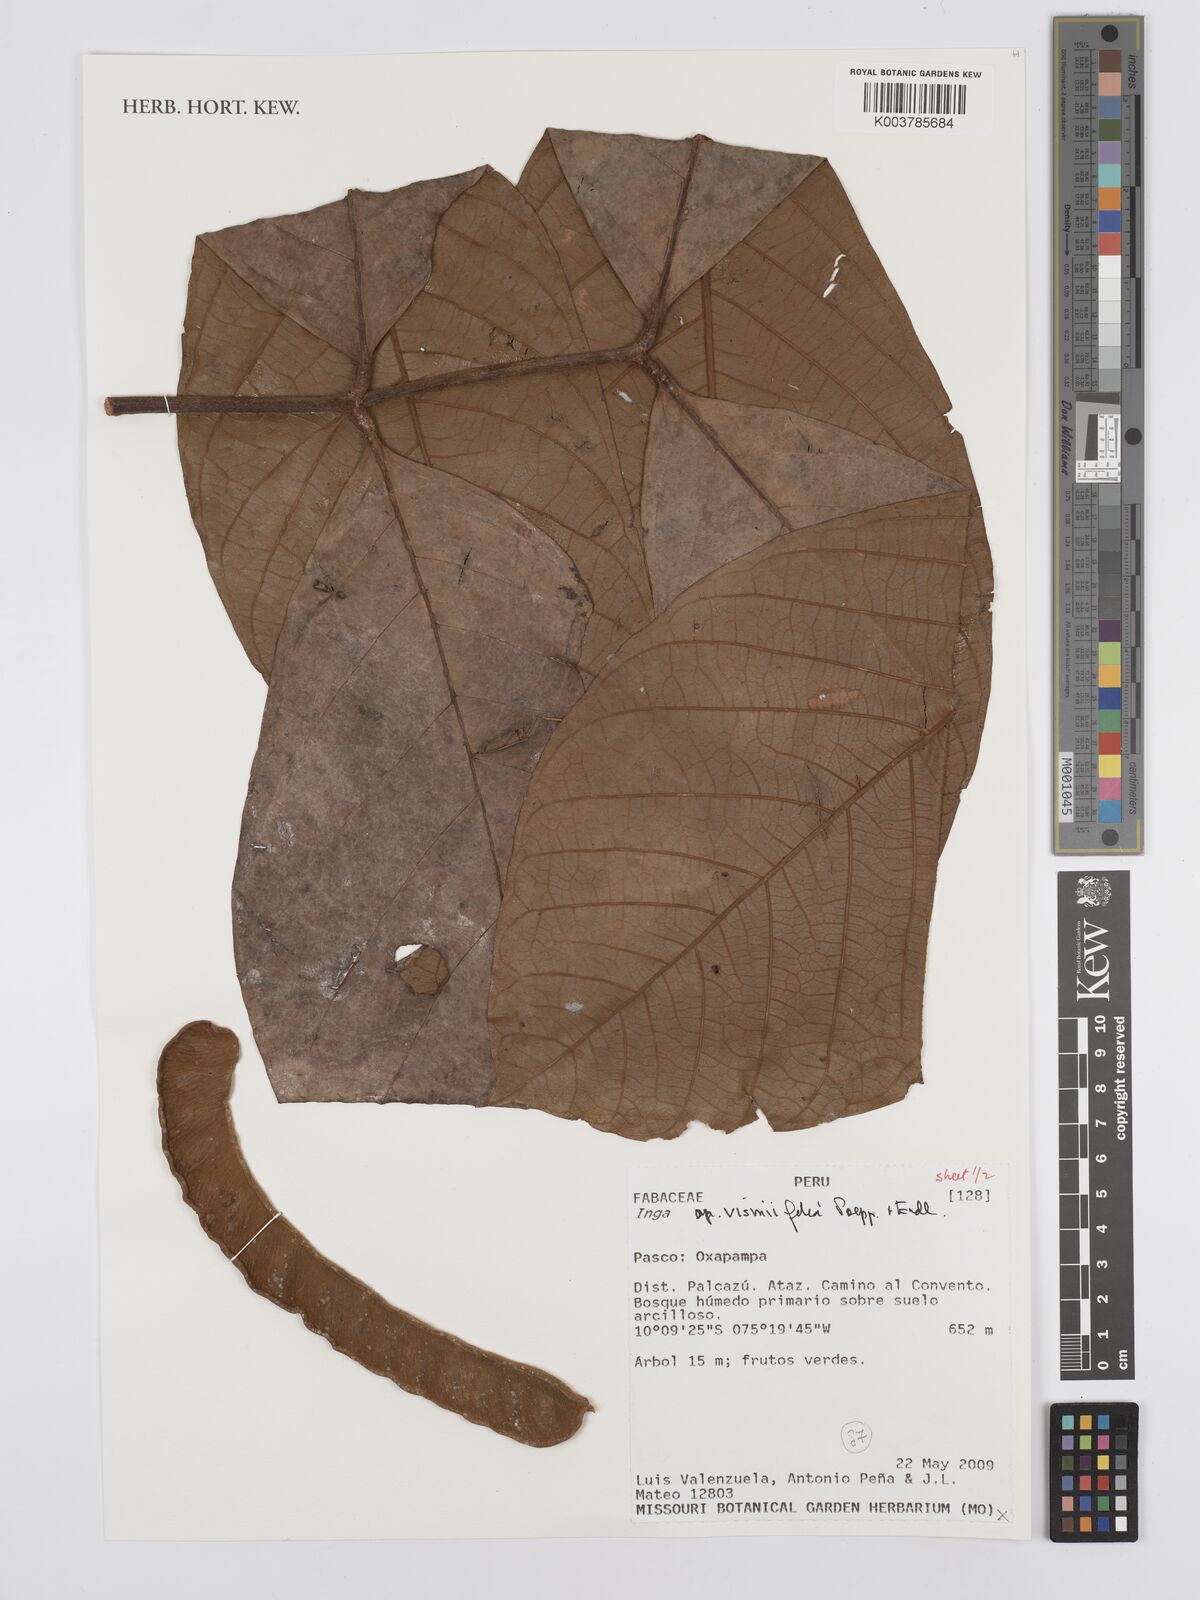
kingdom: Plantae
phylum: Tracheophyta
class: Magnoliopsida
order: Fabales
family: Fabaceae
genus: Inga
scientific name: Inga vismiifolia
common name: Howler monkey inga
